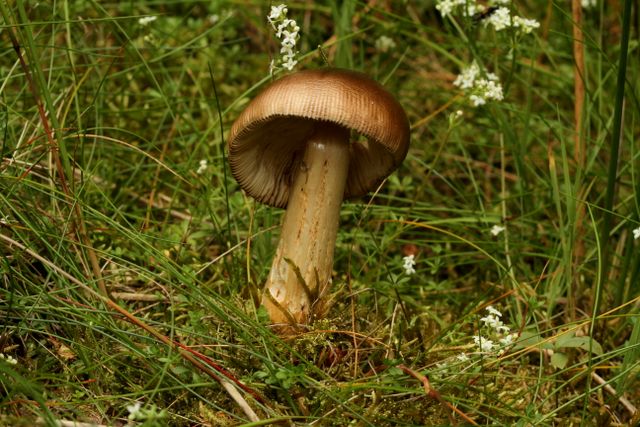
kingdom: Fungi
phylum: Basidiomycota
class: Agaricomycetes
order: Agaricales
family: Amanitaceae
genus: Amanita
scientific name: Amanita fulva
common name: brun kam-fluesvamp
